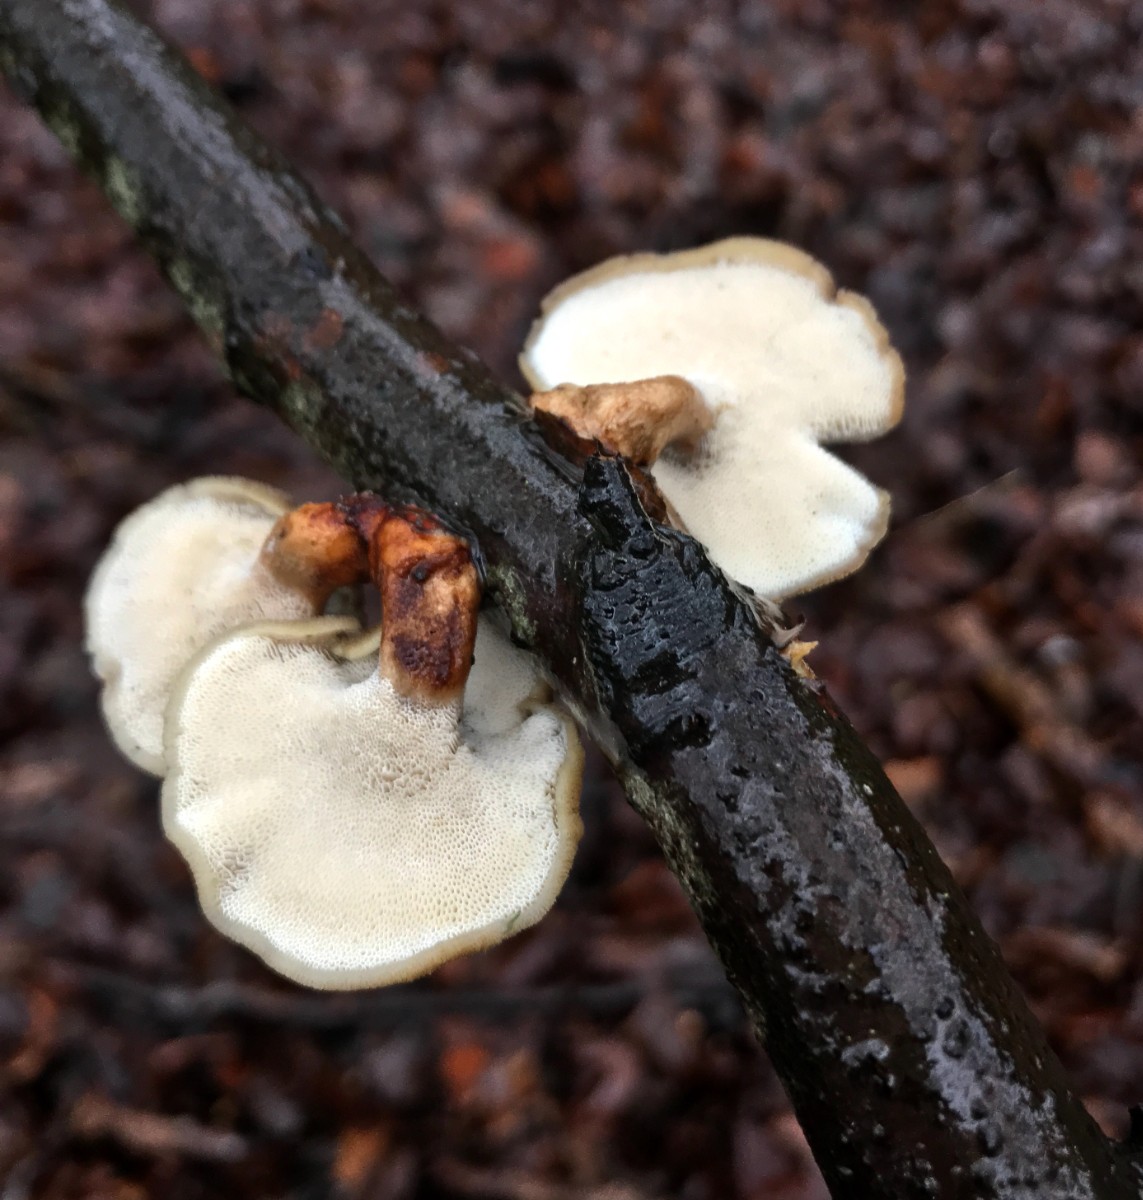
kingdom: Fungi
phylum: Basidiomycota
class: Agaricomycetes
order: Polyporales
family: Polyporaceae
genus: Cerioporus
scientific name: Cerioporus varius
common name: foranderlig stilkporesvamp
